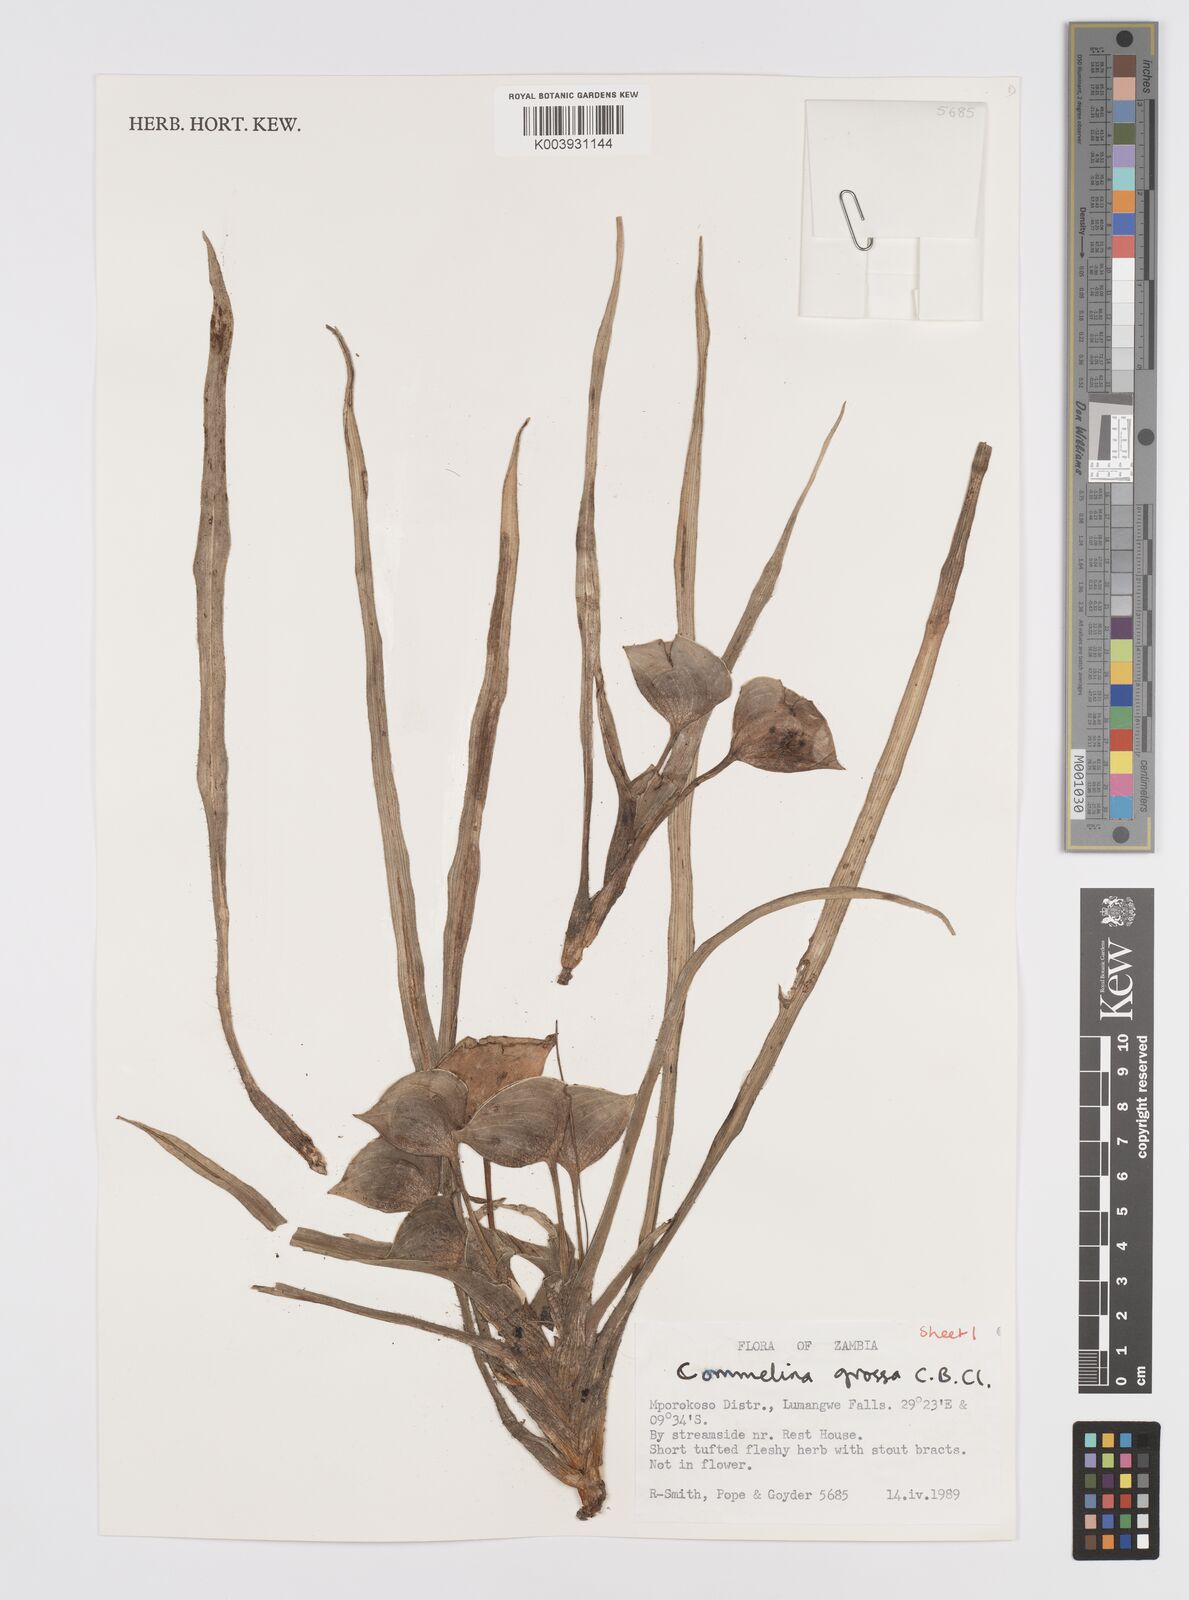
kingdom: Plantae
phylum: Tracheophyta
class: Liliopsida
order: Commelinales
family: Commelinaceae
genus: Commelina
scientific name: Commelina grossa
